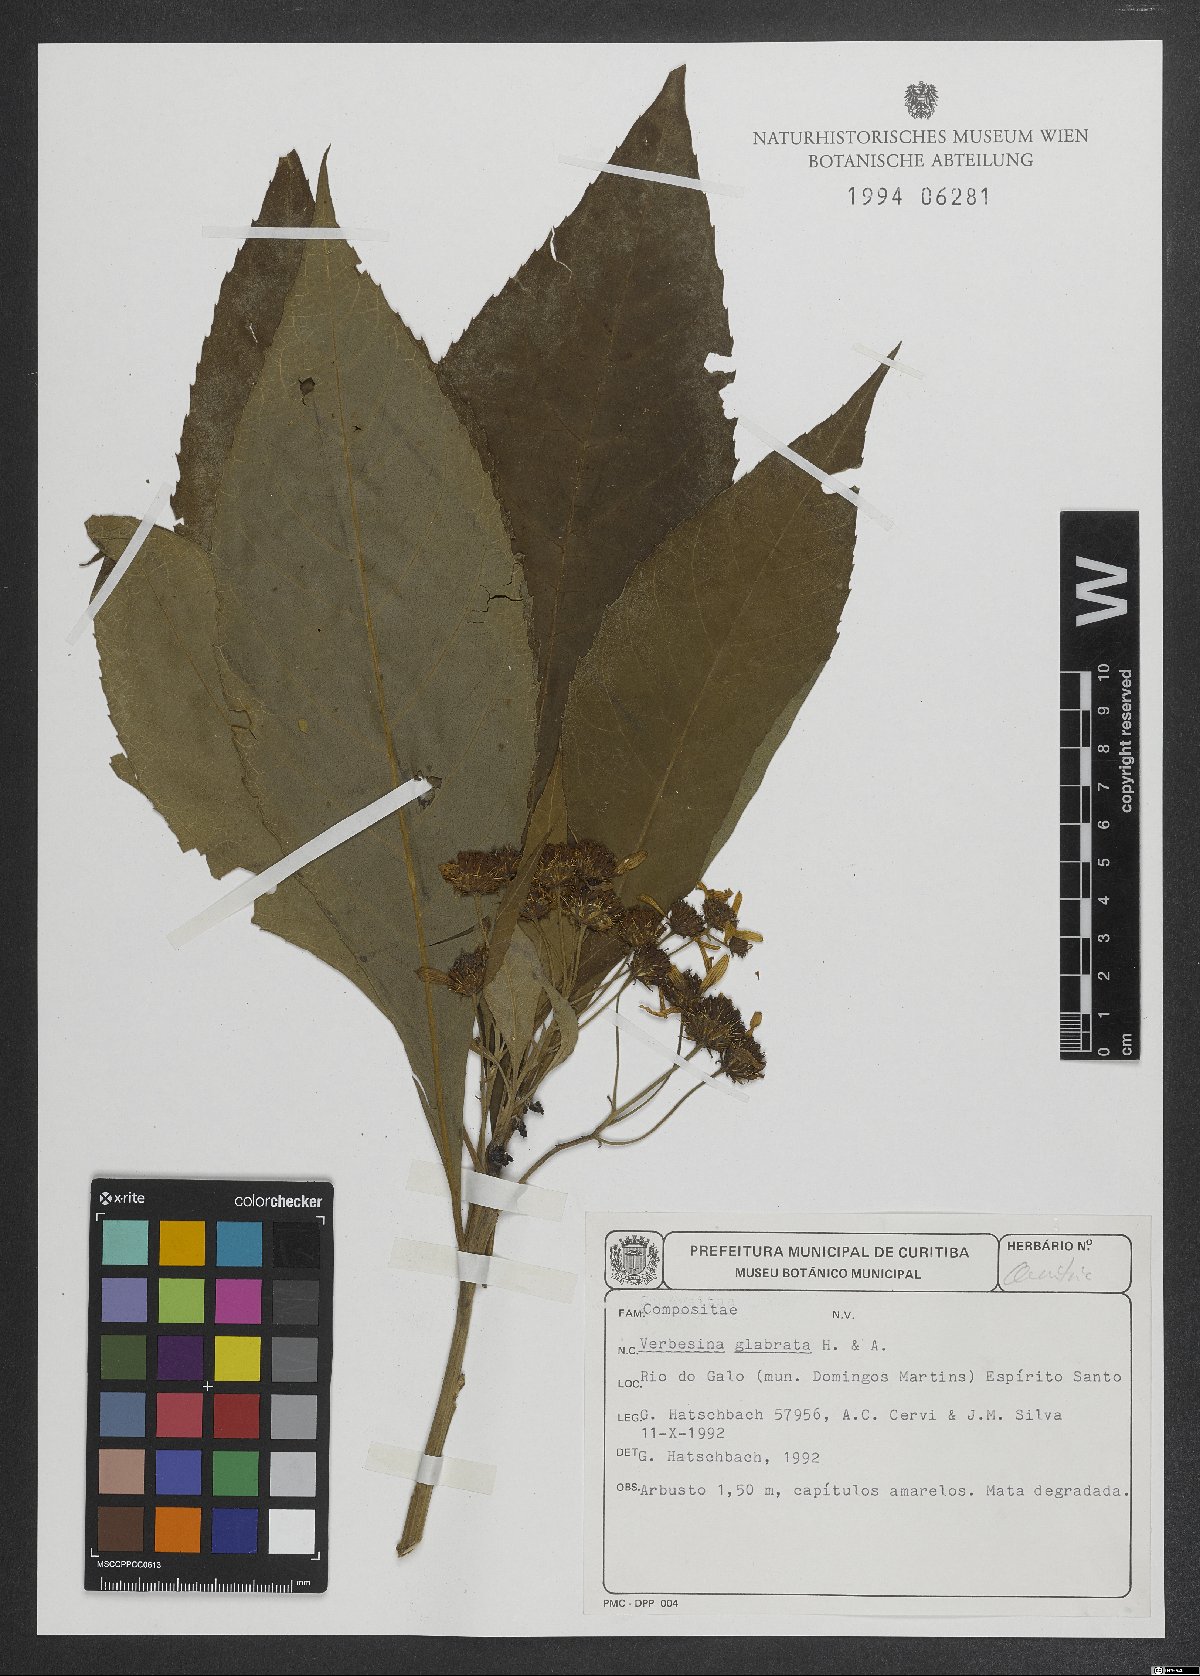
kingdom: Plantae
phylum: Tracheophyta
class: Magnoliopsida
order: Asterales
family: Asteraceae
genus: Lessingianthus
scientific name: Lessingianthus glabratus
